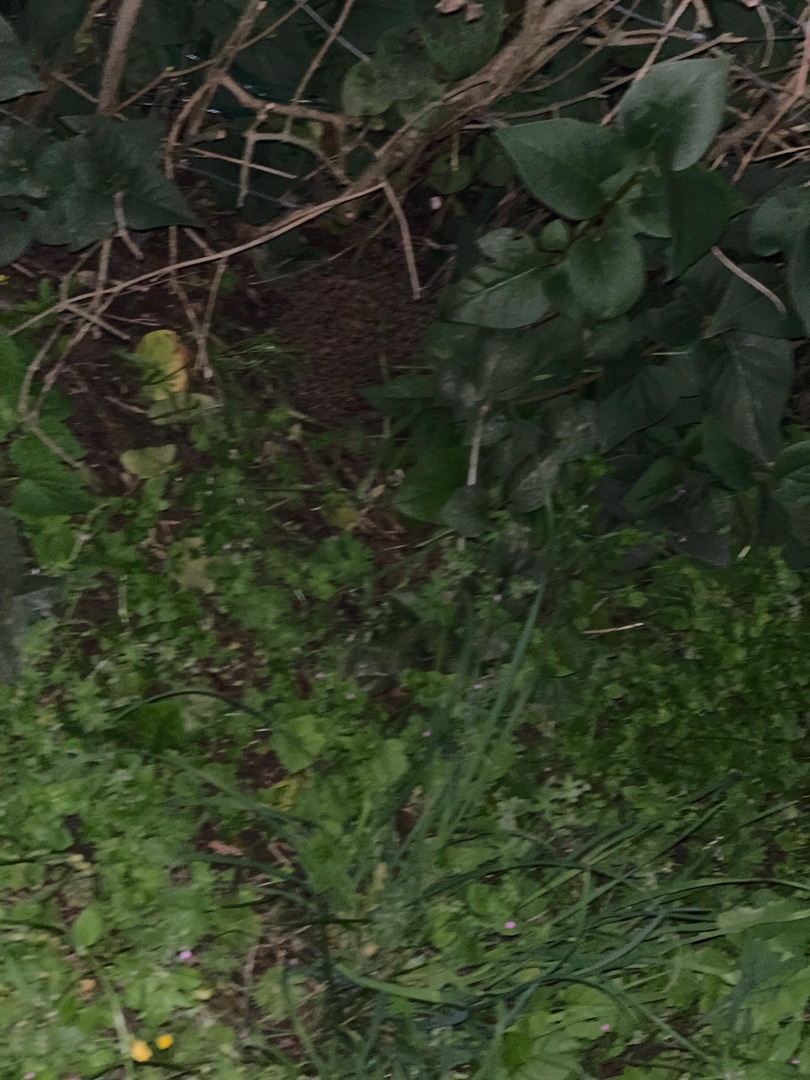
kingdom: Animalia
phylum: Chordata
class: Mammalia
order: Erinaceomorpha
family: Erinaceidae
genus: Erinaceus
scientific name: Erinaceus europaeus
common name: Pindsvin
